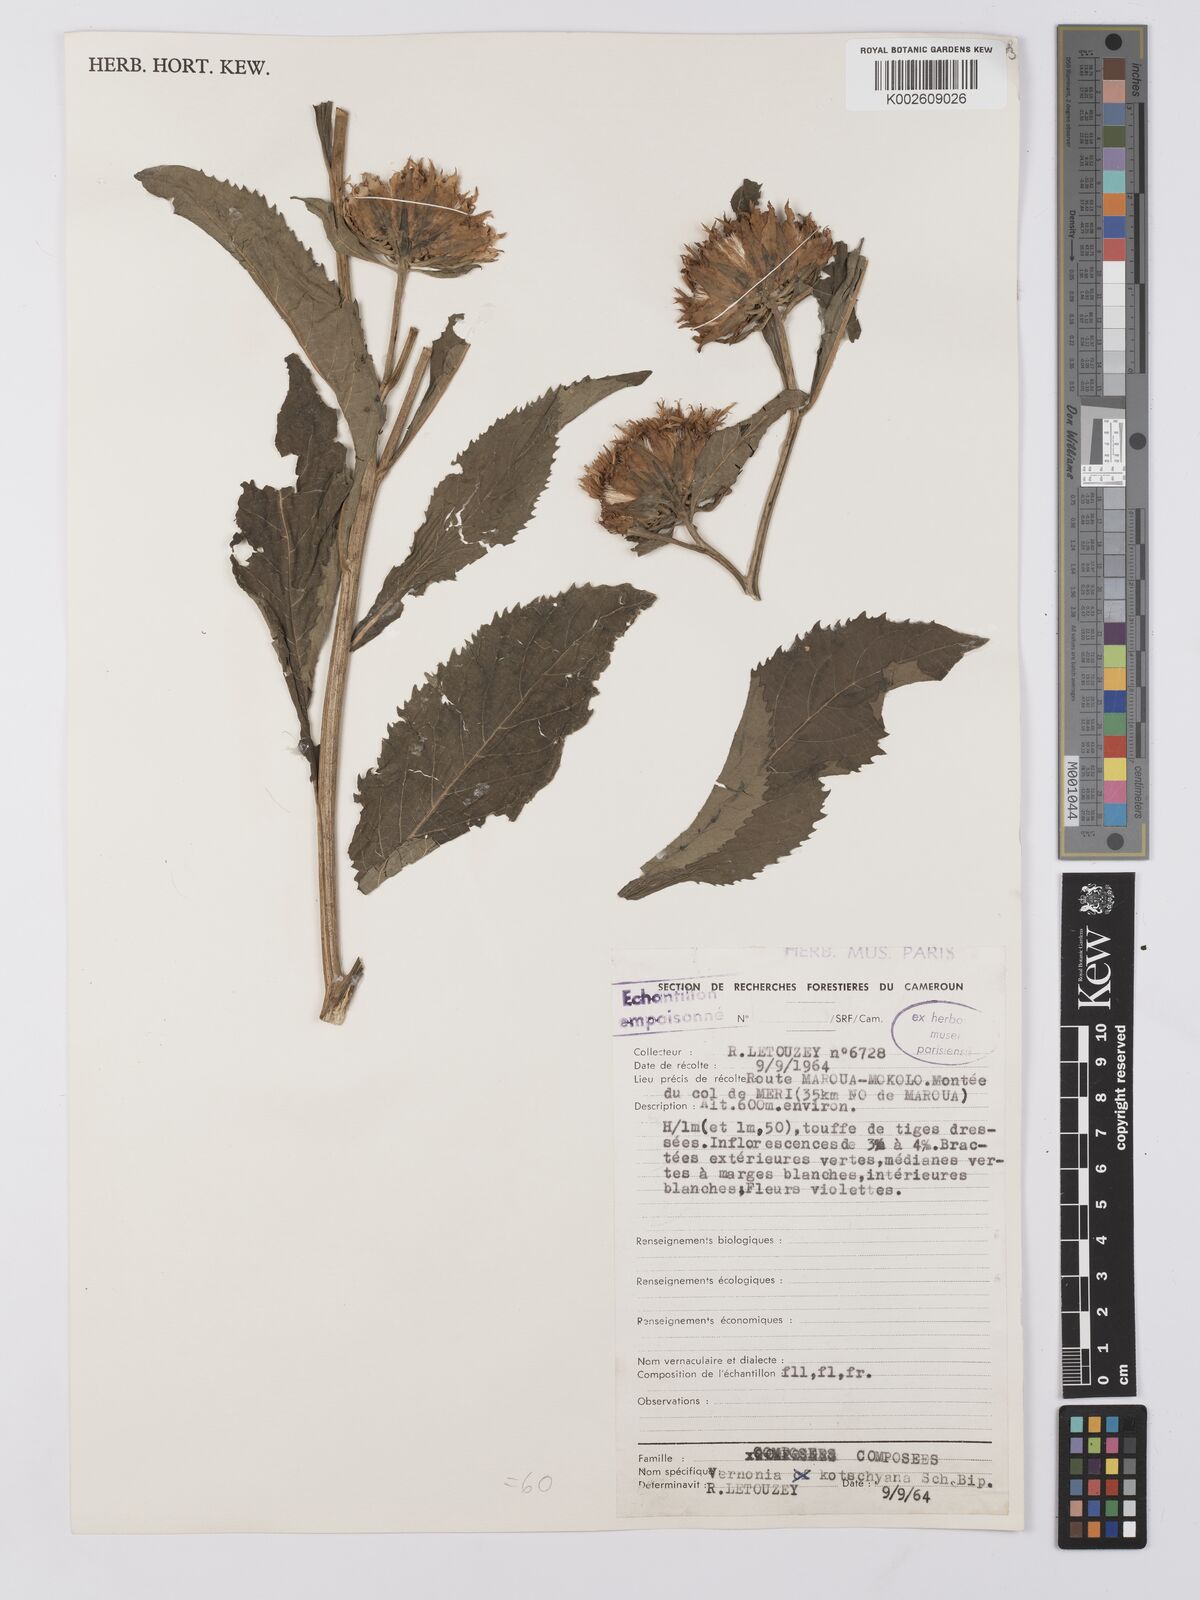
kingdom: Plantae
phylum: Tracheophyta
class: Magnoliopsida
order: Asterales
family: Asteraceae
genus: Baccharoides
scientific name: Baccharoides adoensis
